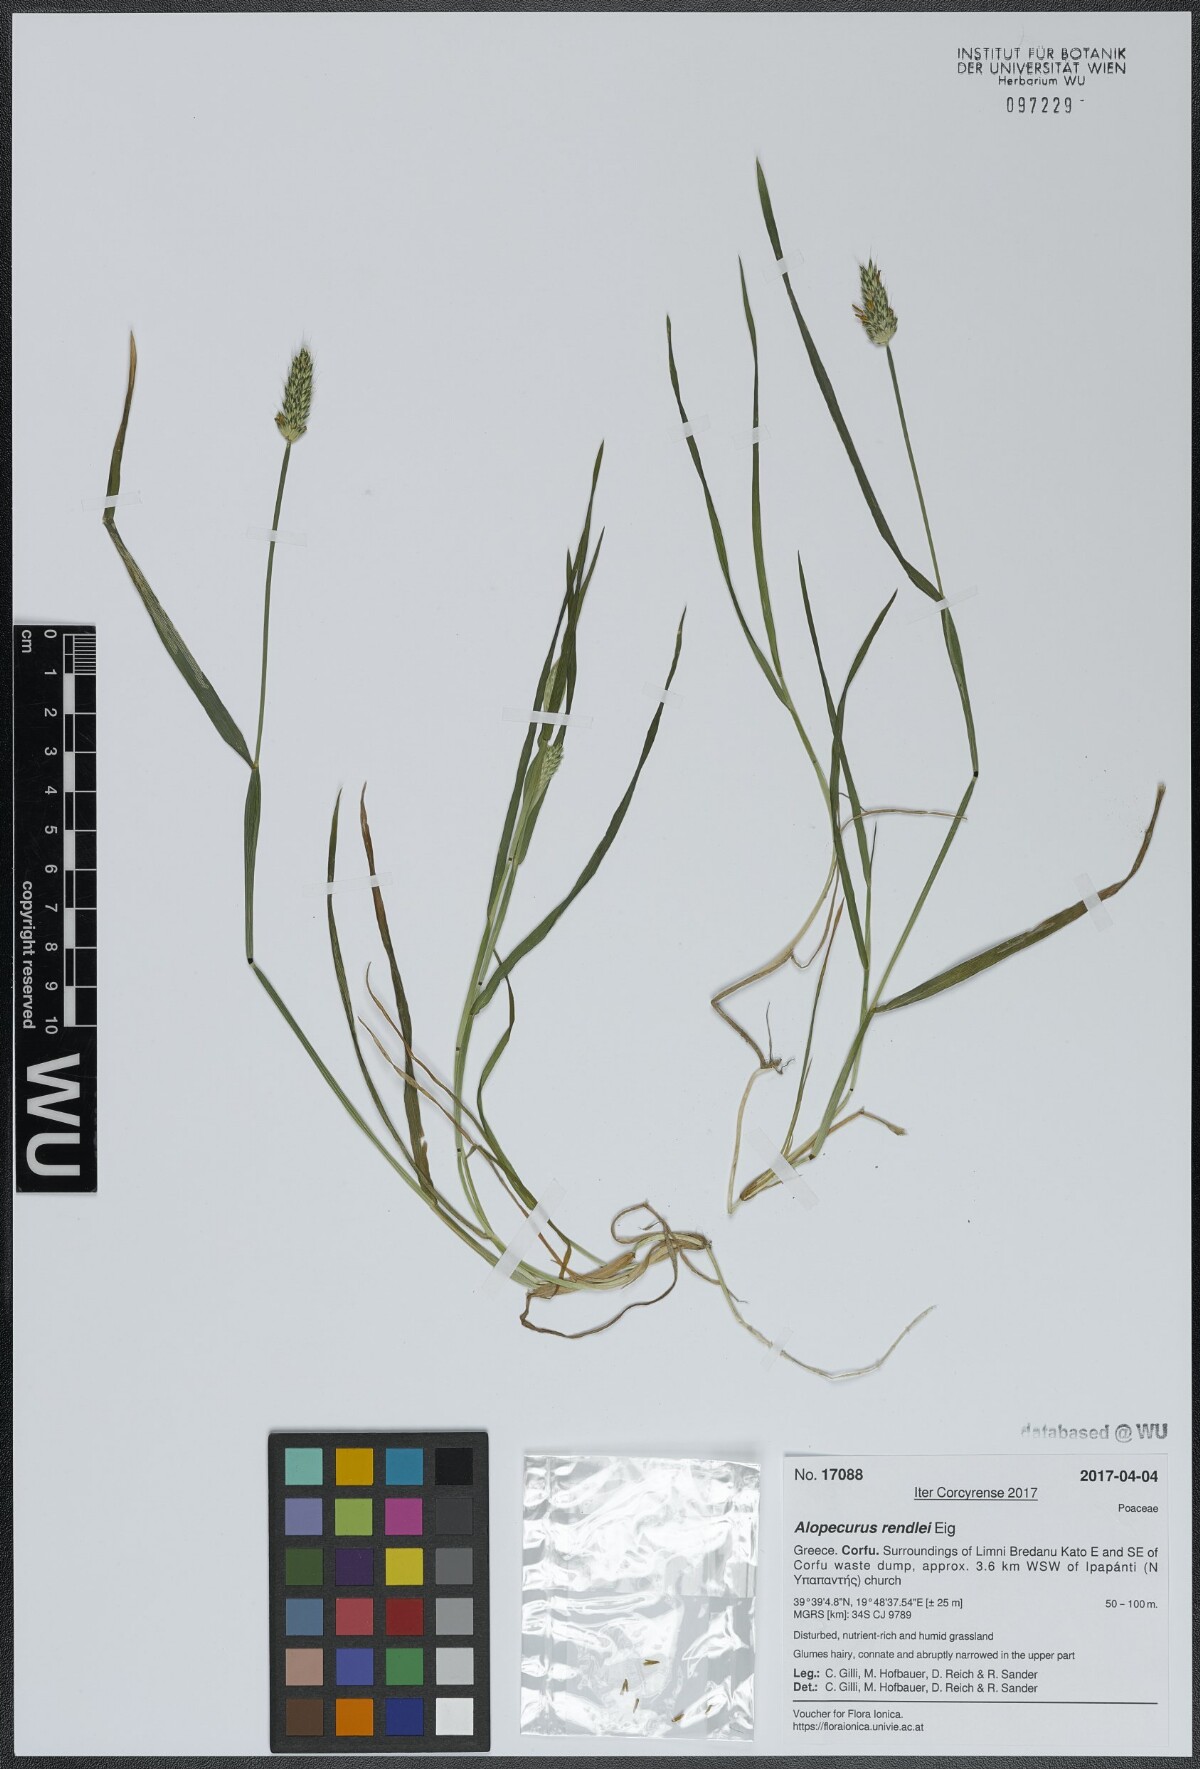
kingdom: Plantae
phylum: Tracheophyta
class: Liliopsida
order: Poales
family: Poaceae
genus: Alopecurus
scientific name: Alopecurus rendlei
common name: Rendle's meadow foxtail
